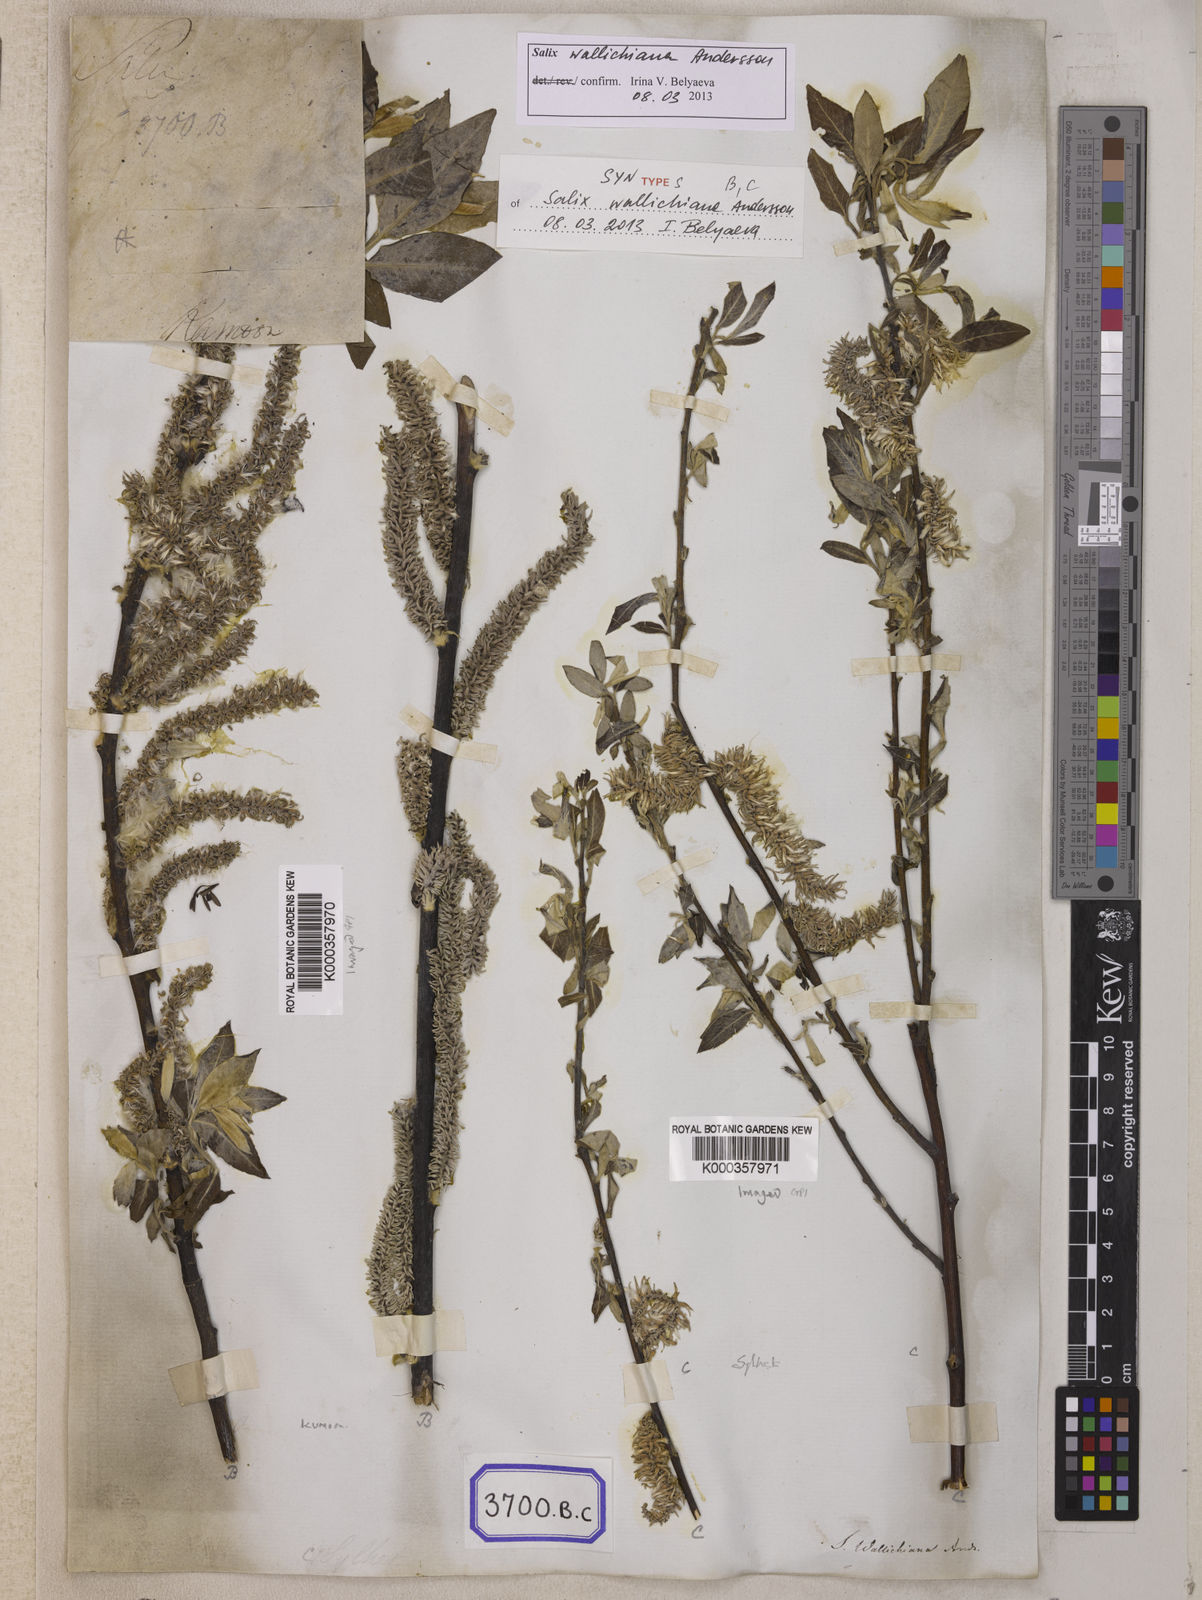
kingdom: Plantae
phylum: Tracheophyta
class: Magnoliopsida
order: Malpighiales
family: Salicaceae
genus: Salix
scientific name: Salix disperma
